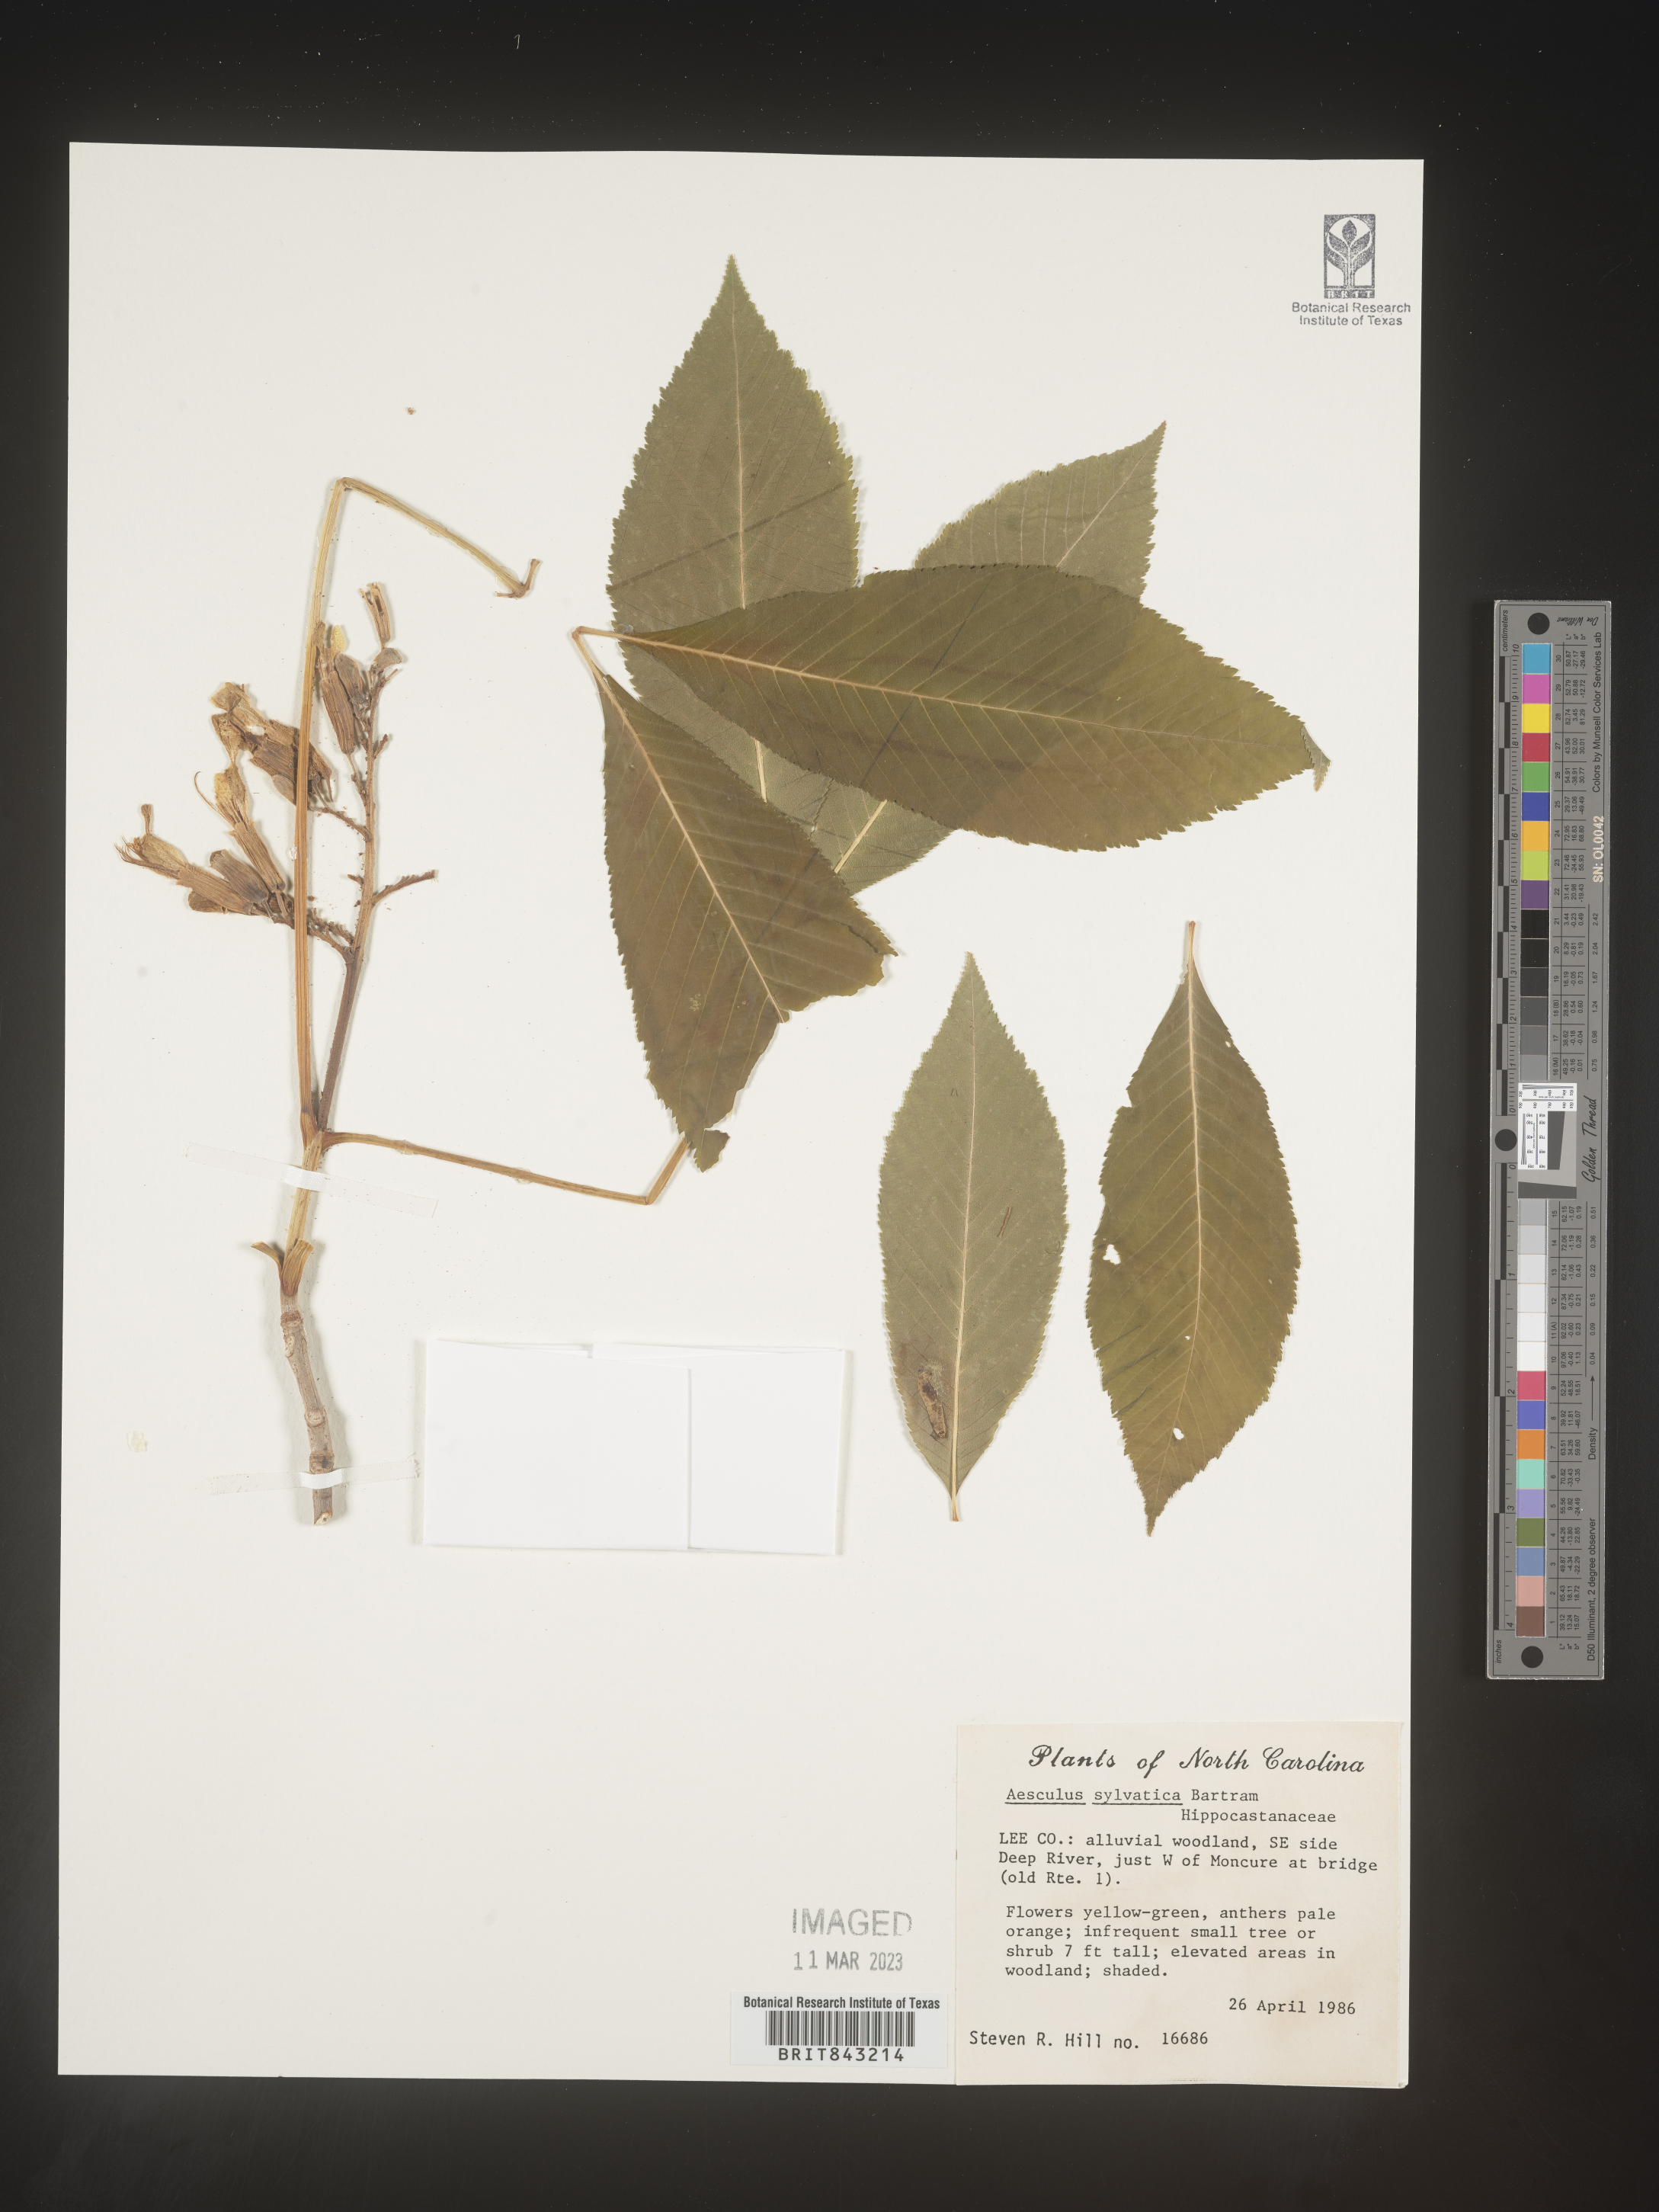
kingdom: Plantae
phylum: Tracheophyta
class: Magnoliopsida
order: Sapindales
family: Sapindaceae
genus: Aesculus
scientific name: Aesculus
